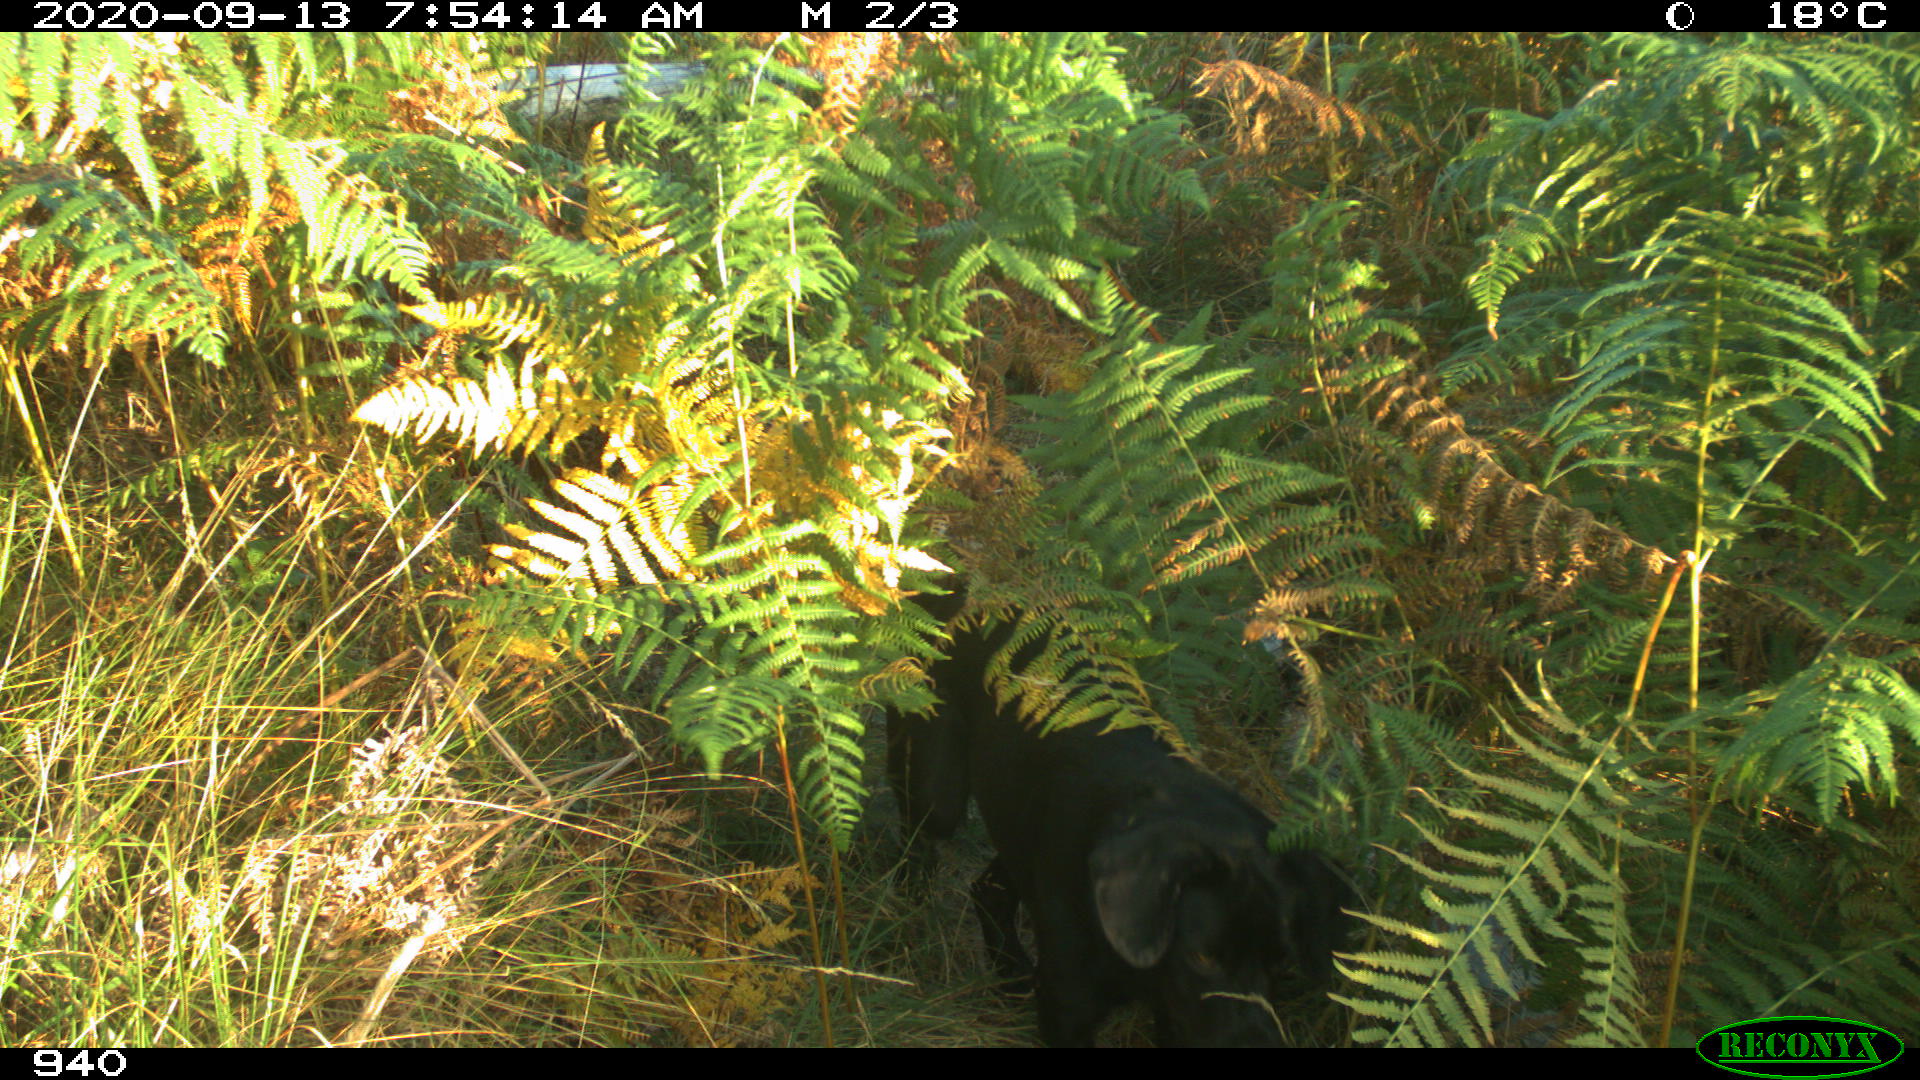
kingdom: Animalia
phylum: Chordata
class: Mammalia
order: Carnivora
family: Canidae
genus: Canis
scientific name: Canis lupus
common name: Gray wolf
